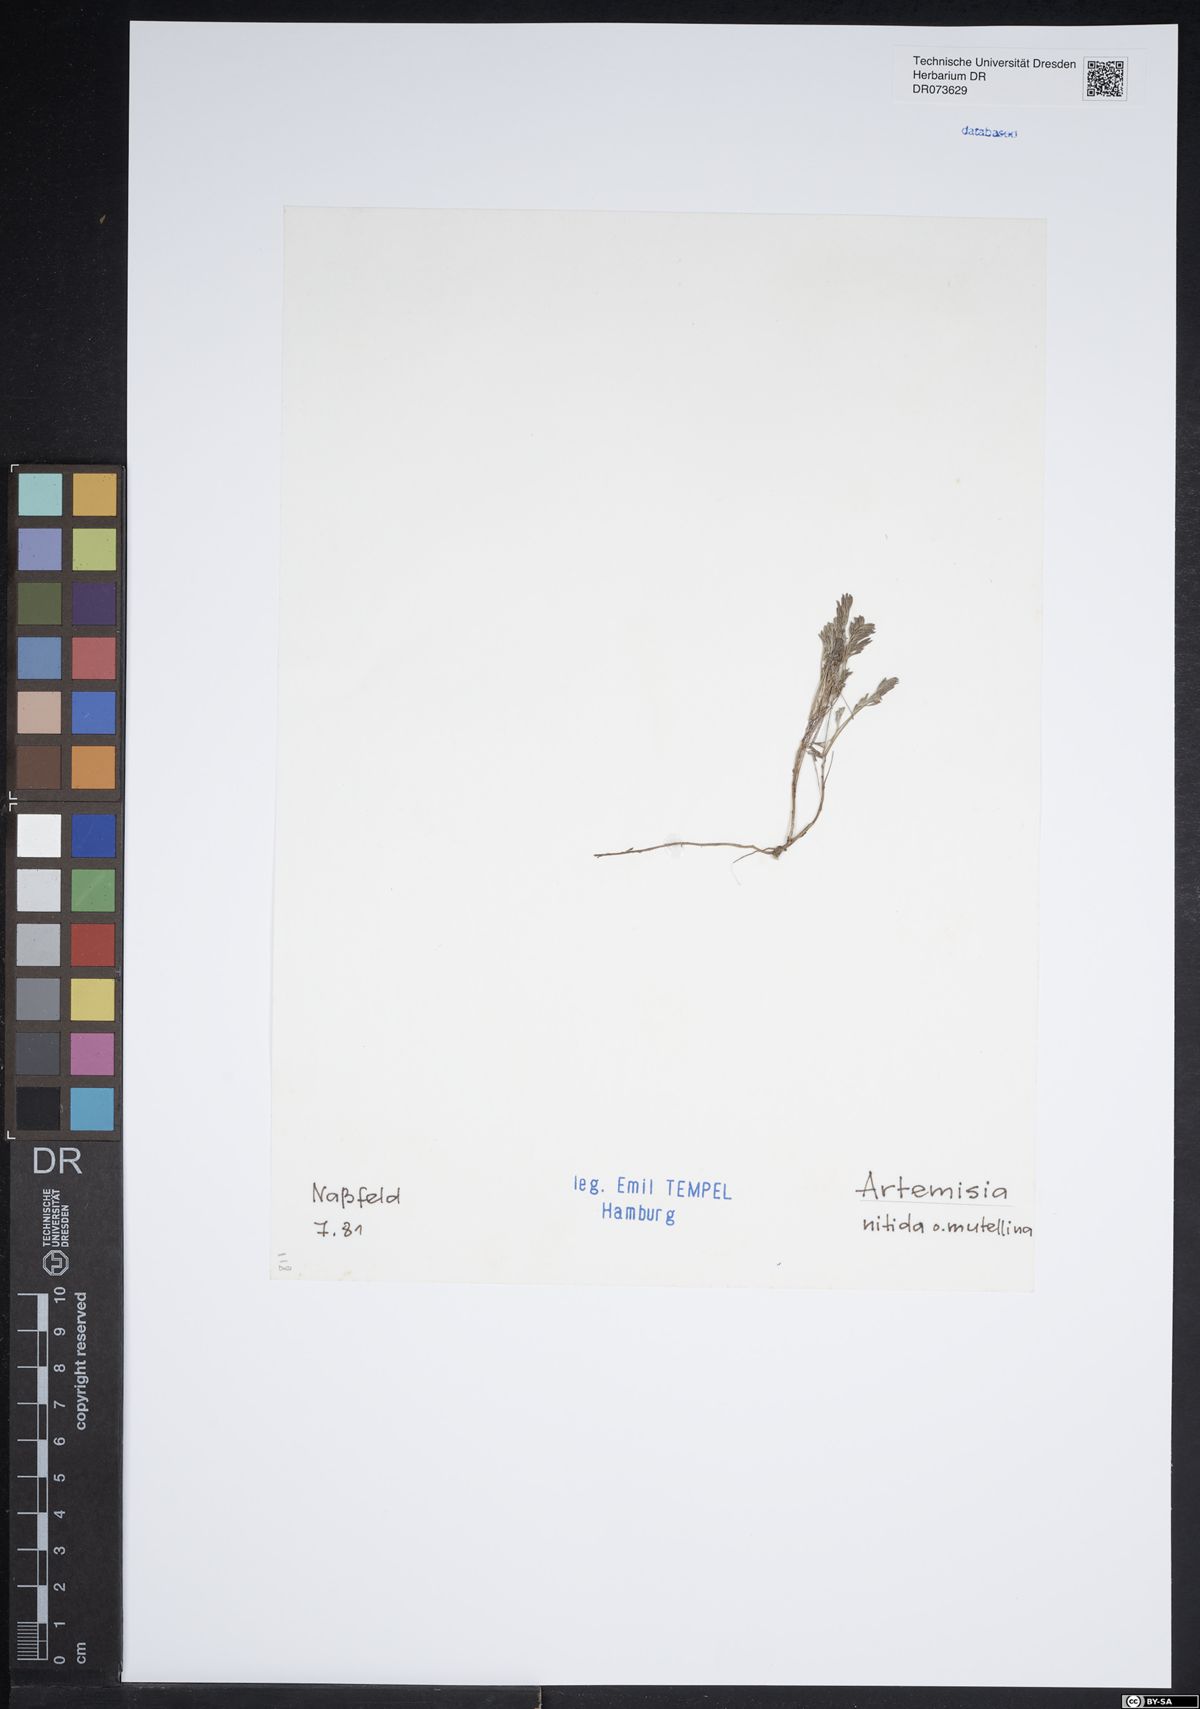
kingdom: Plantae
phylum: Tracheophyta
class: Magnoliopsida
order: Asterales
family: Asteraceae
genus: Artemisia
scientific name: Artemisia
